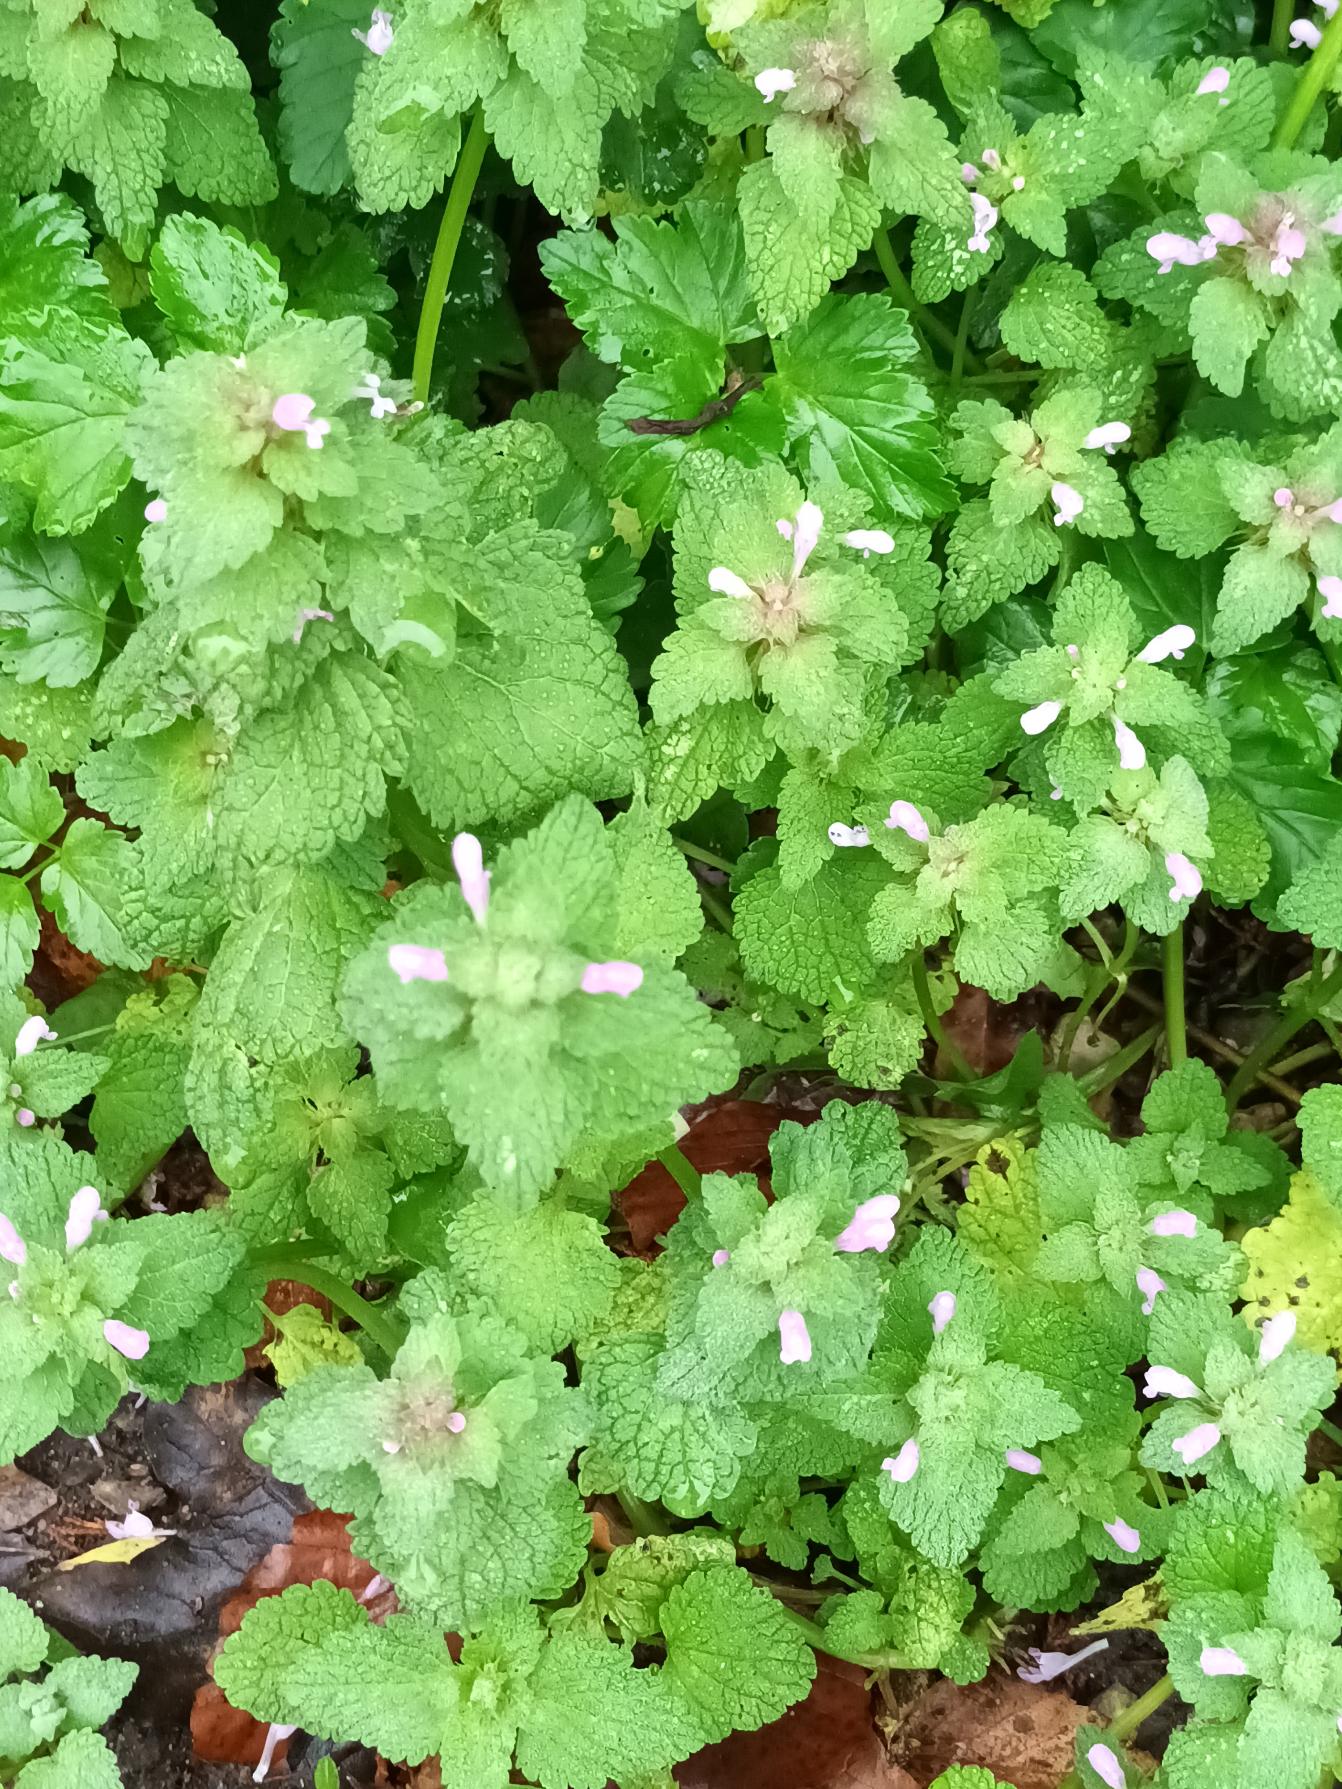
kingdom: Plantae
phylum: Tracheophyta
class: Magnoliopsida
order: Lamiales
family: Lamiaceae
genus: Lamium
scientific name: Lamium purpureum
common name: Rød tvetand
